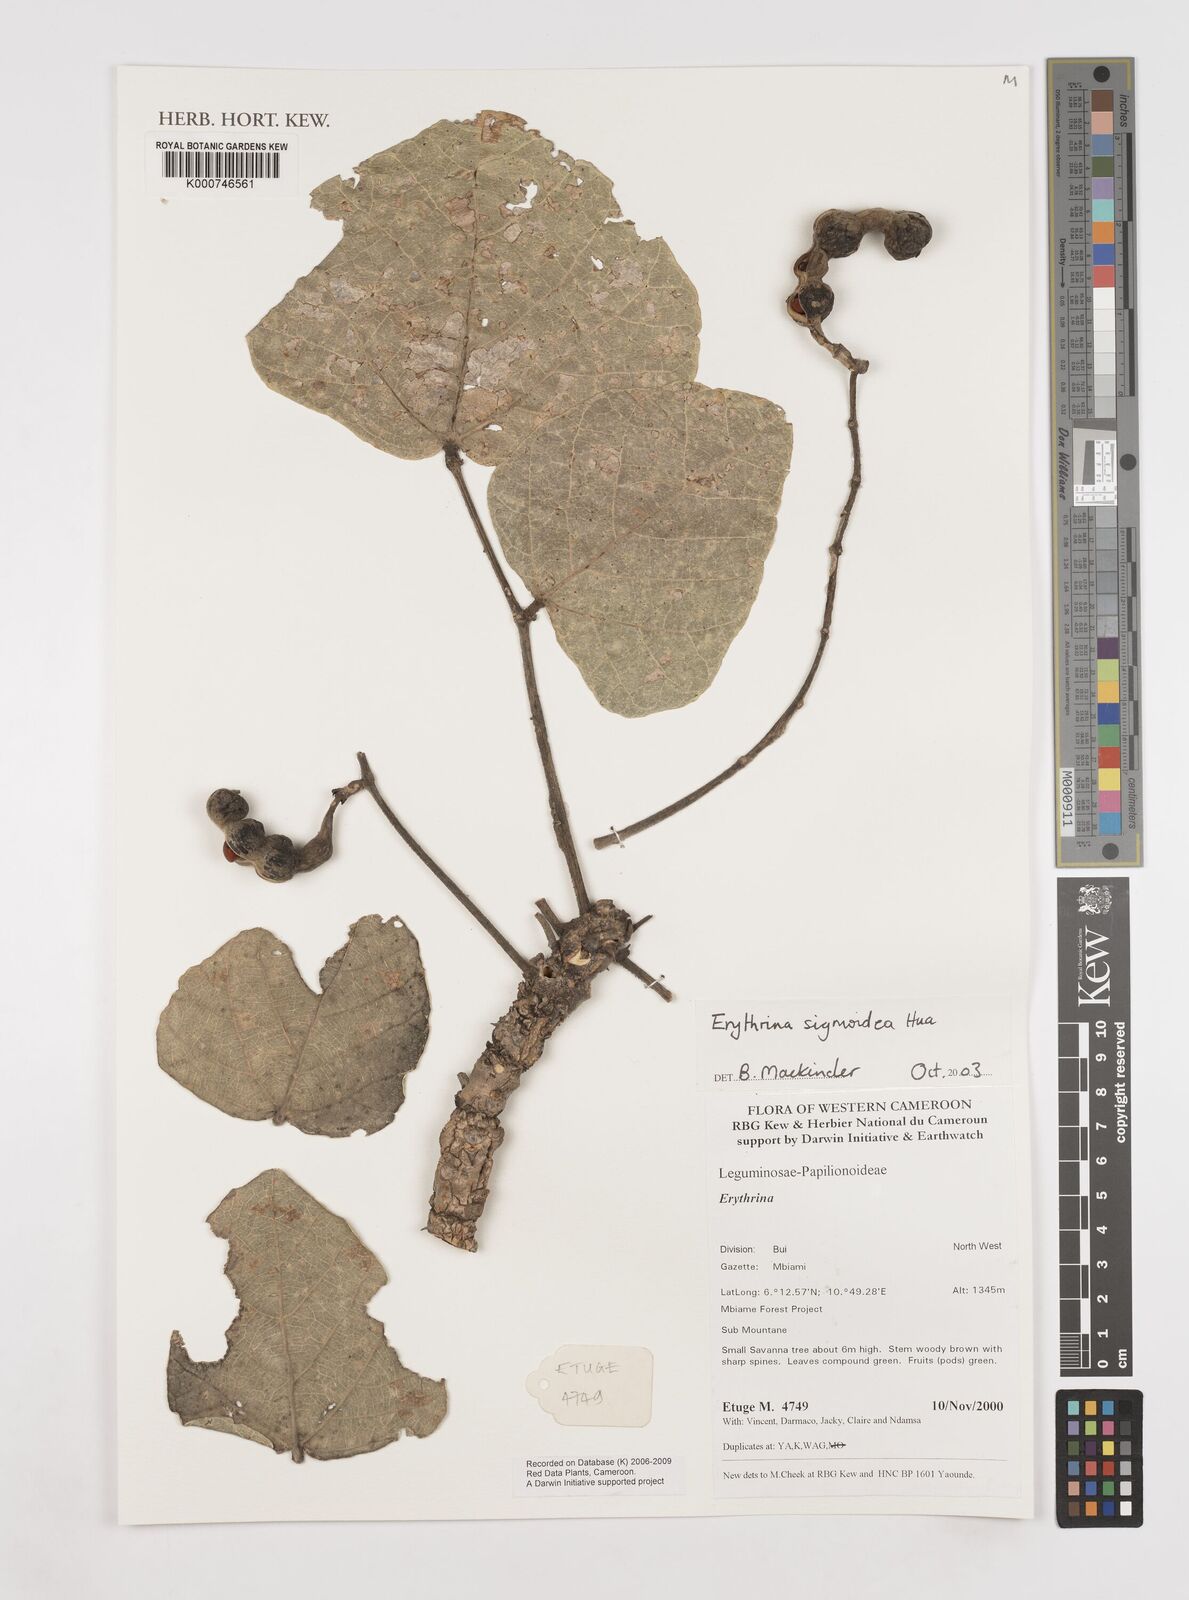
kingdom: Plantae
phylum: Tracheophyta
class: Magnoliopsida
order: Fabales
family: Fabaceae
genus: Erythrina
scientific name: Erythrina sigmoidea
